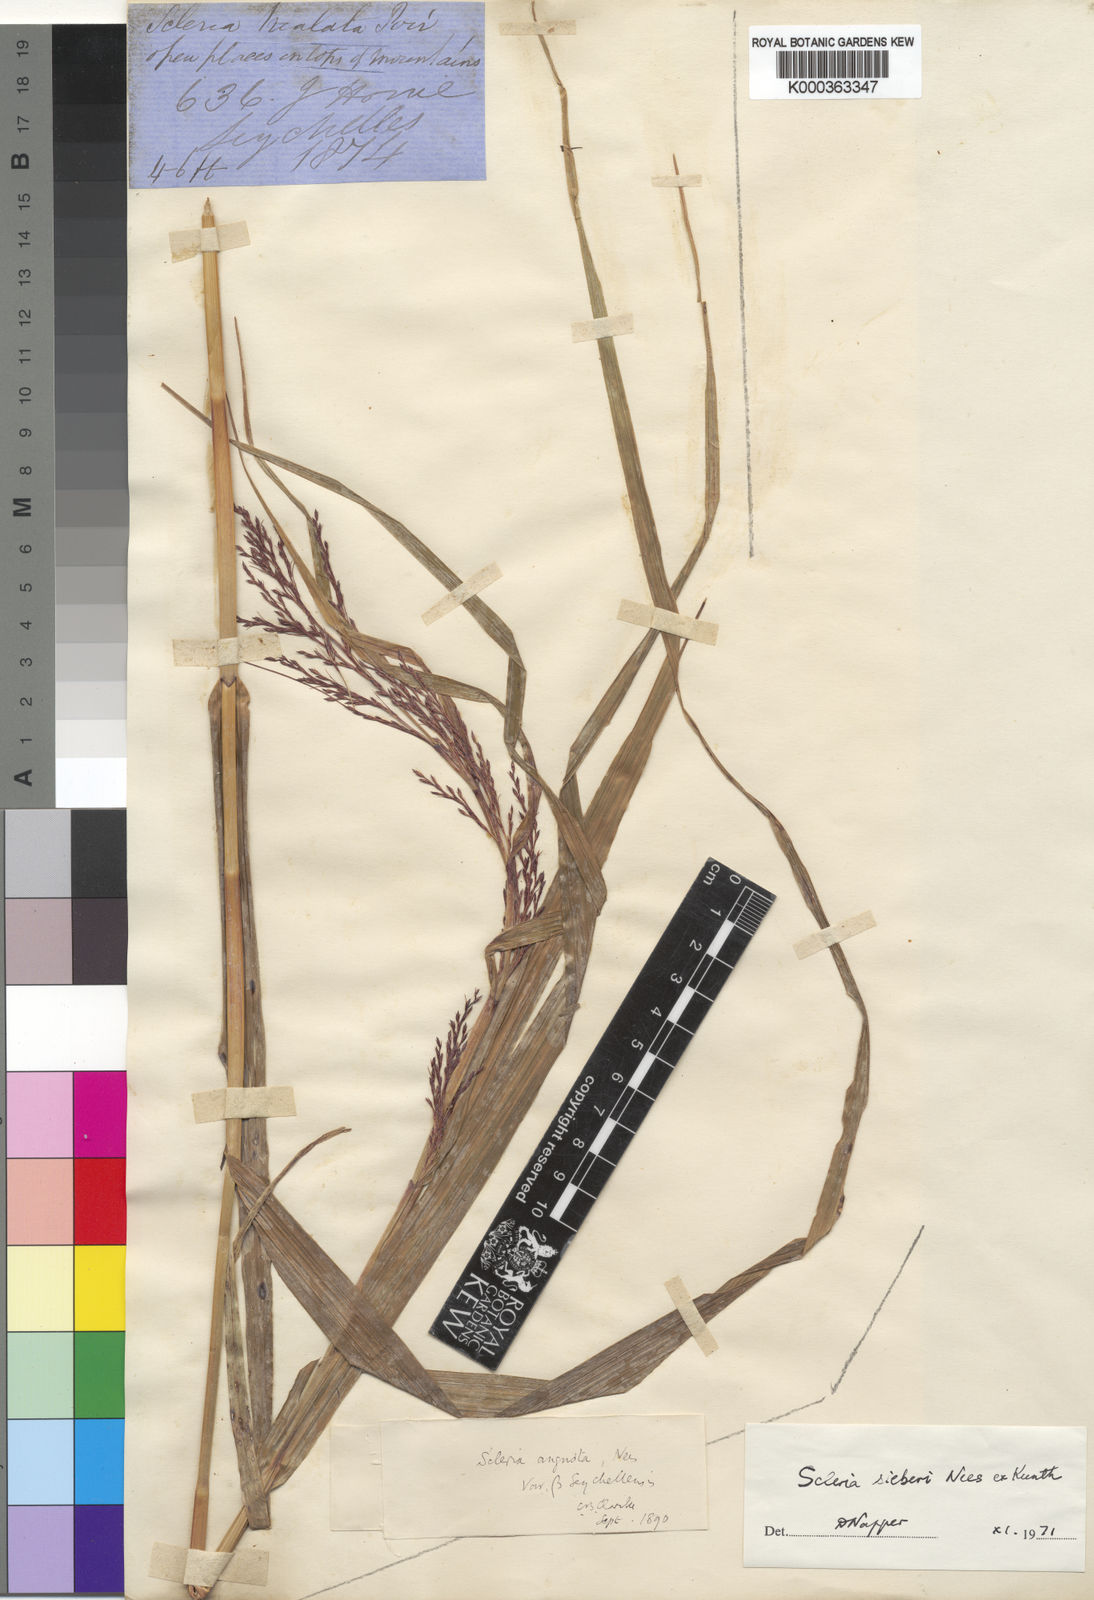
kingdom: Plantae
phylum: Tracheophyta
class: Liliopsida
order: Poales
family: Cyperaceae
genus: Scleria
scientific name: Scleria gaertneri
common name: Cortadera blanca
